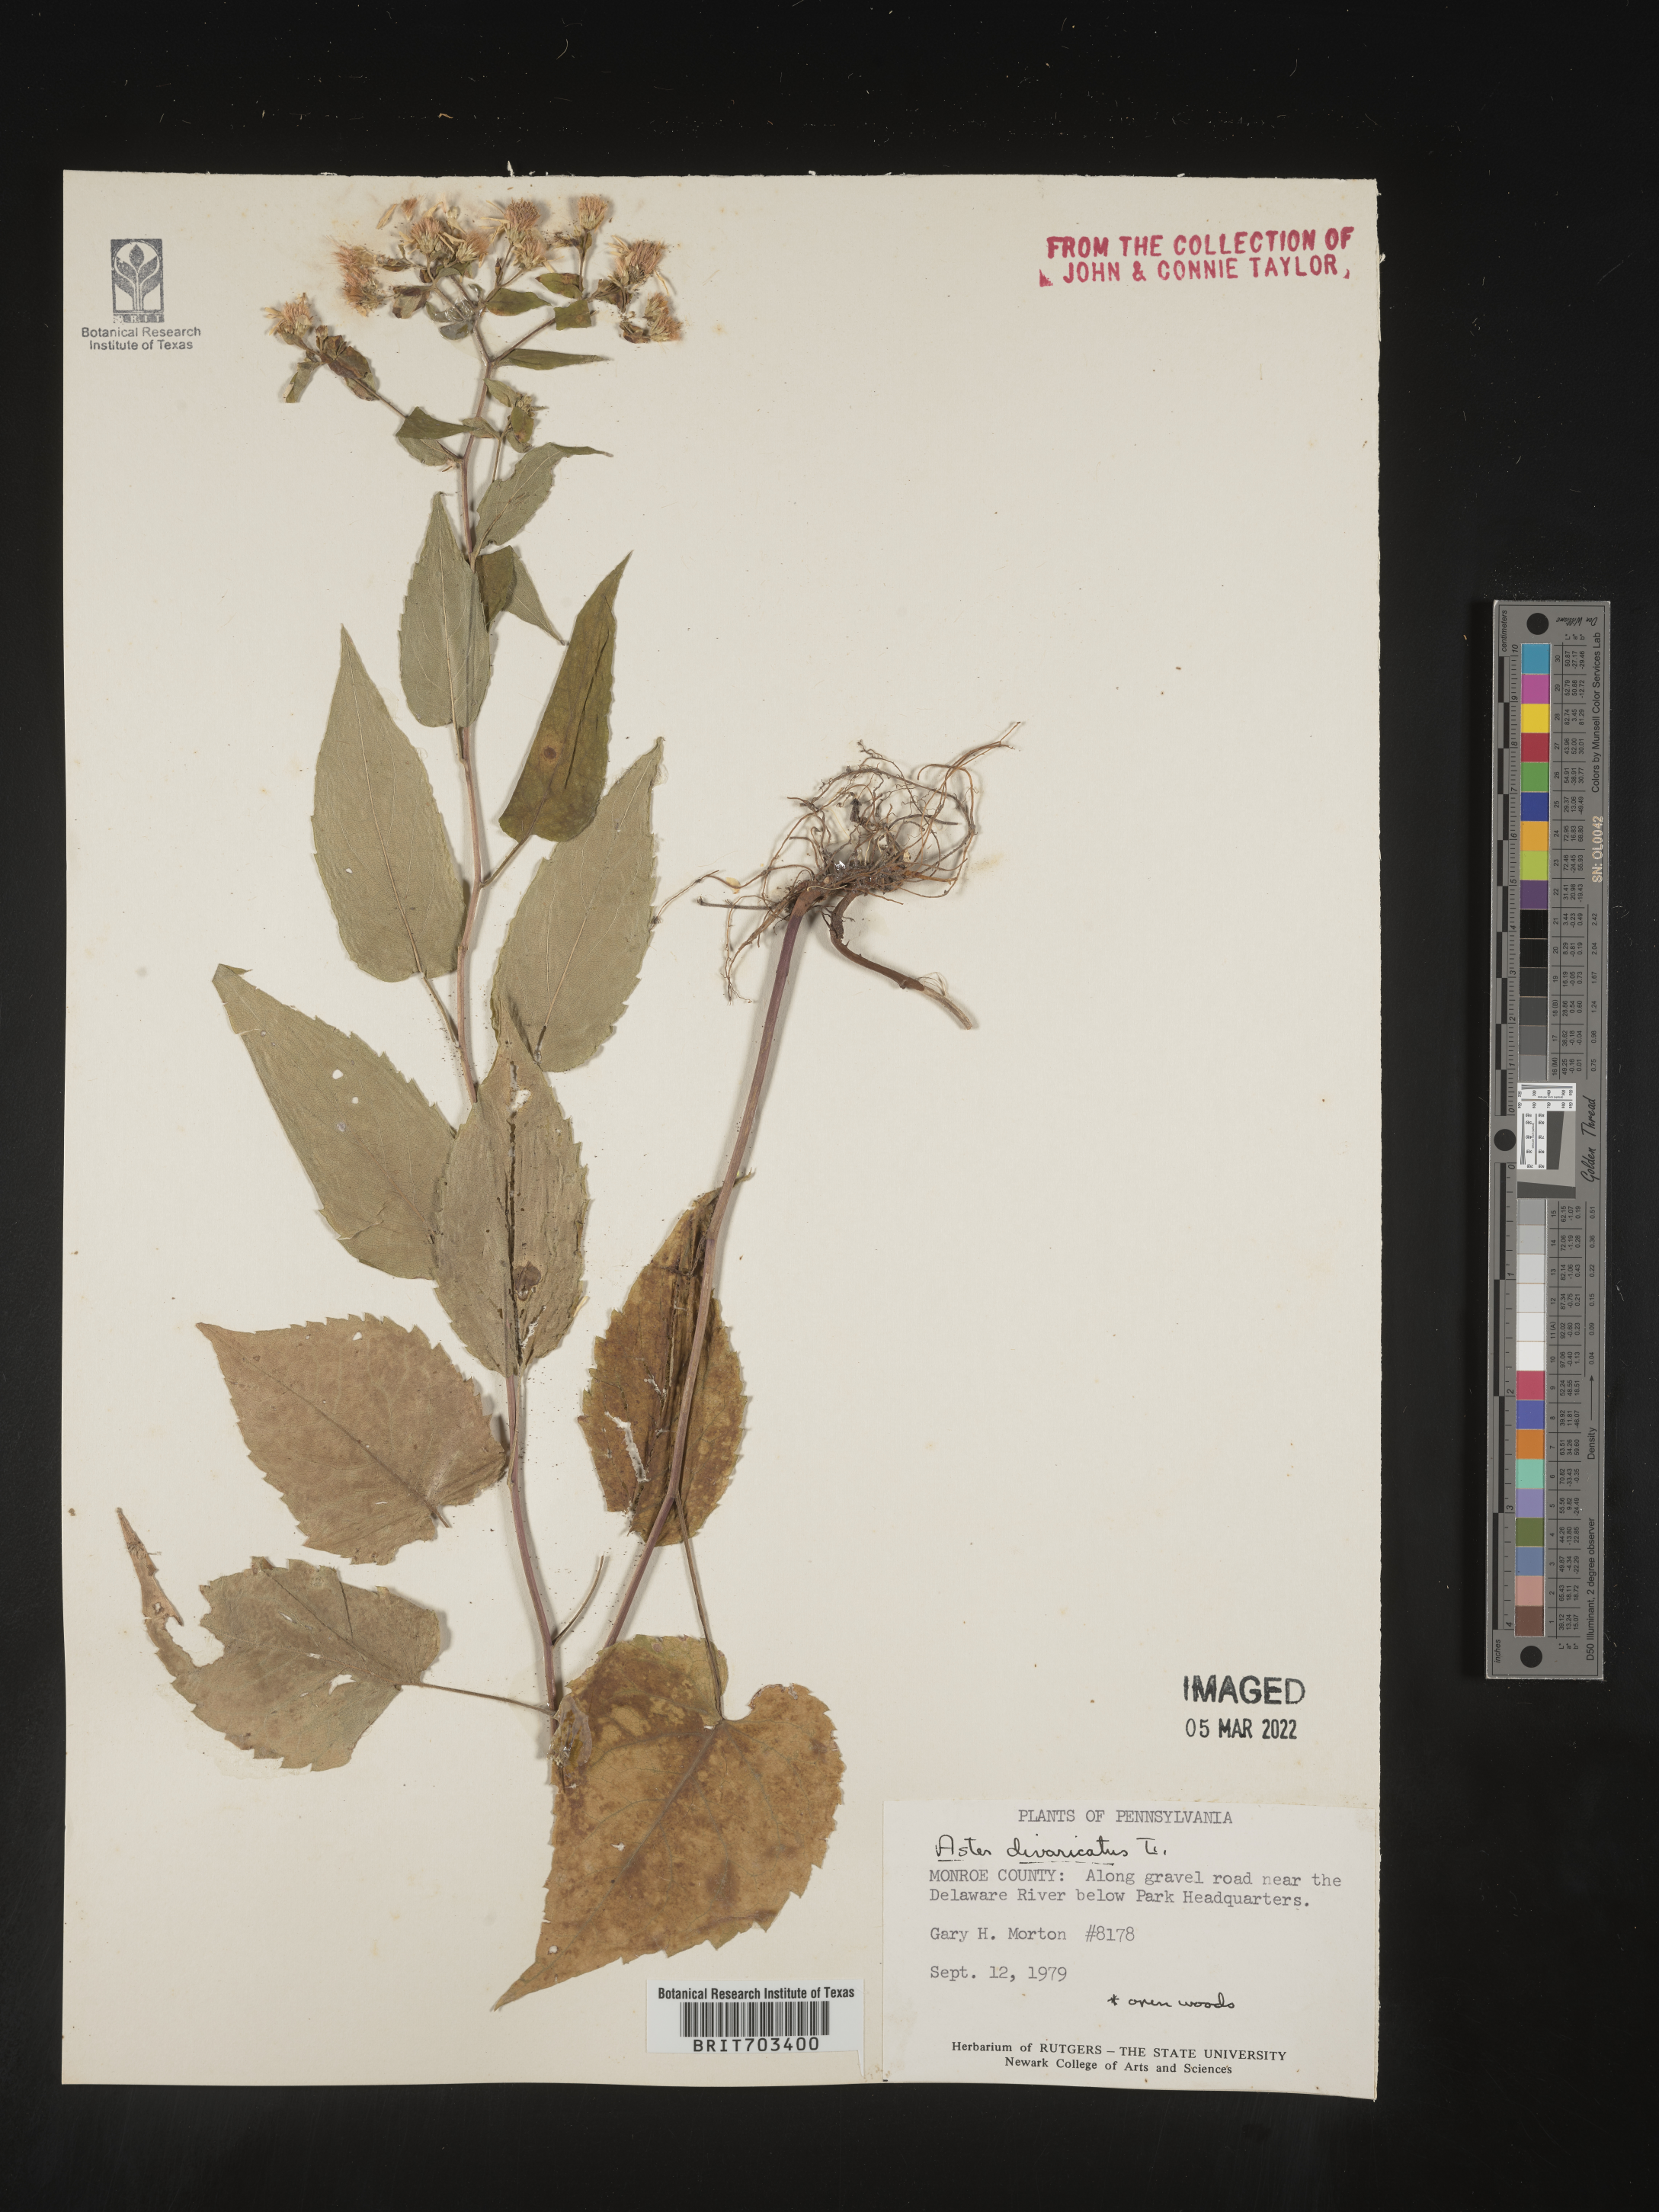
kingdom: Plantae
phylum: Tracheophyta
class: Magnoliopsida
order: Asterales
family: Asteraceae
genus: Eurybia
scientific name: Eurybia divaricata
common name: White wood aster
